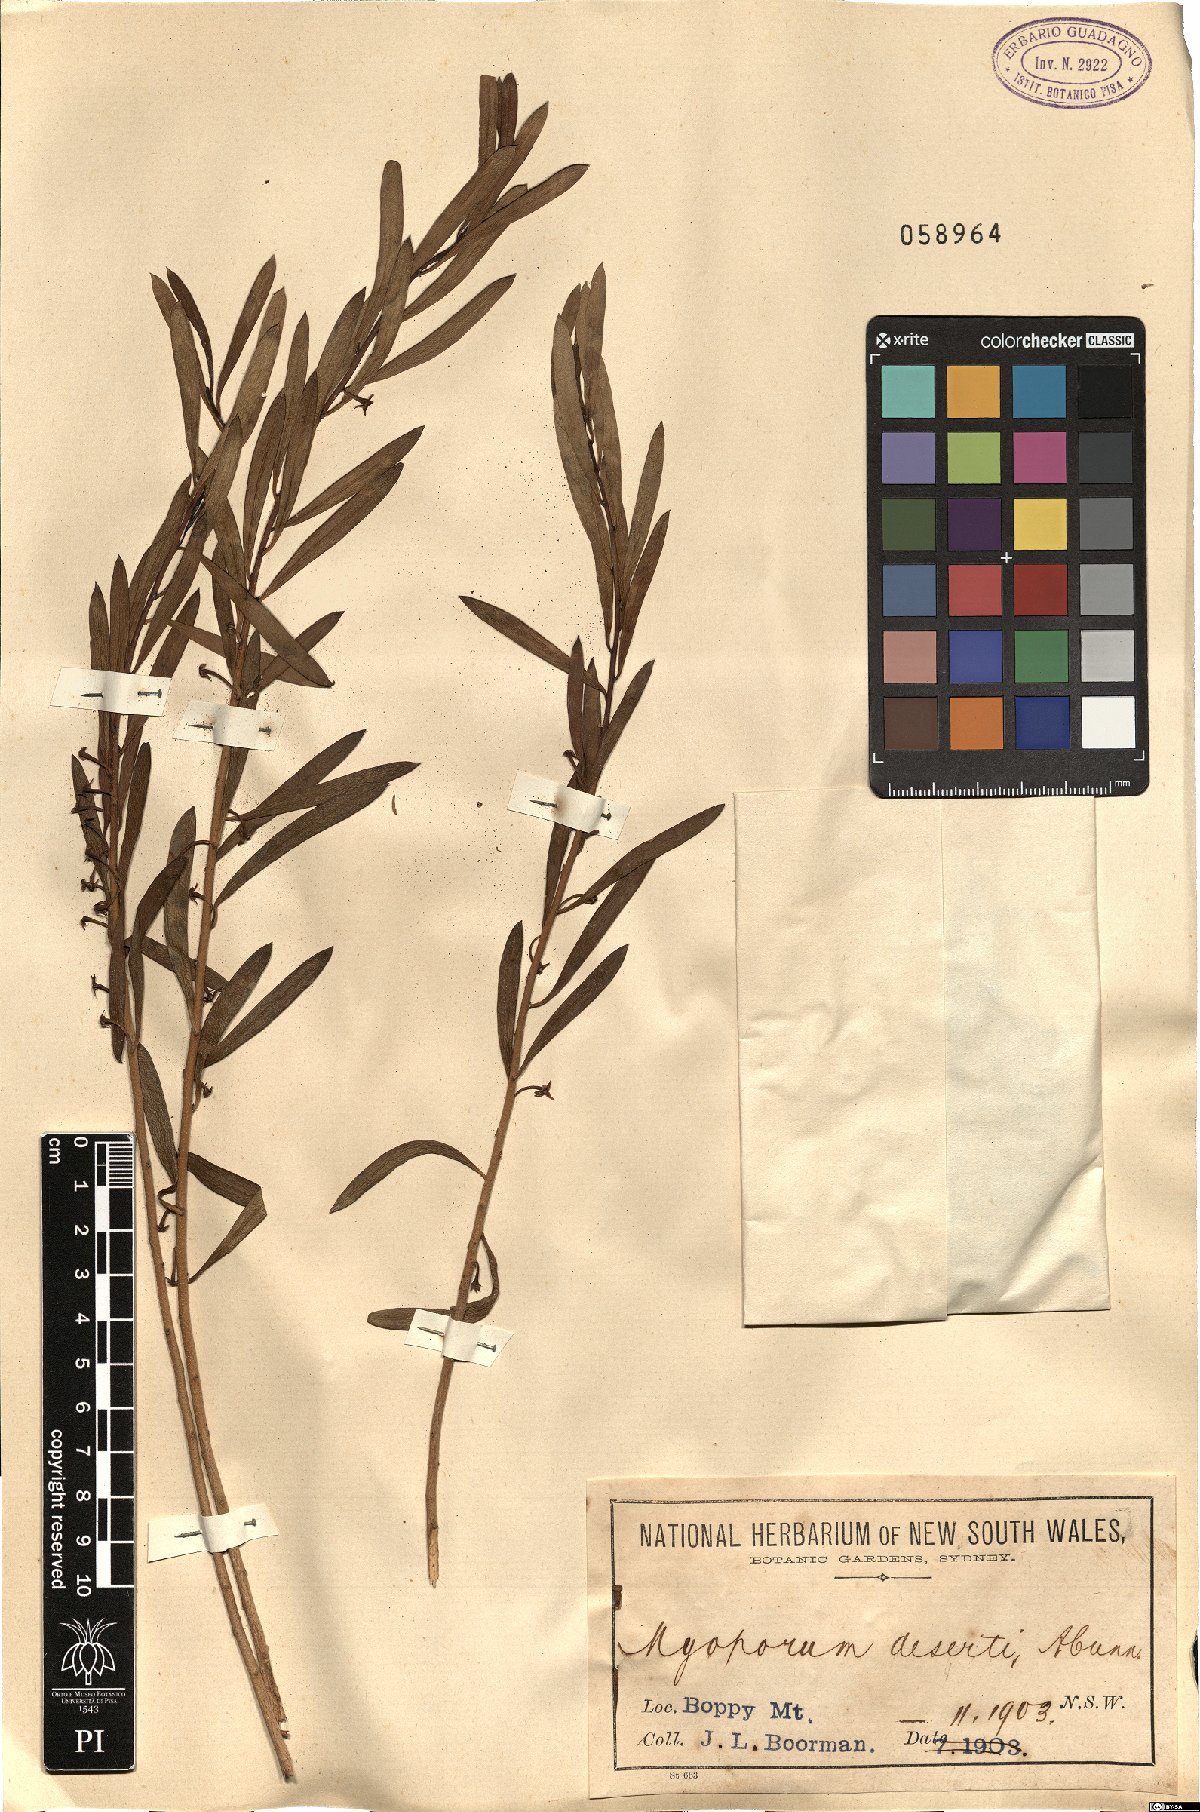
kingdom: Plantae
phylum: Tracheophyta
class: Magnoliopsida
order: Lamiales
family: Scrophulariaceae
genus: Eremophila
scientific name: Eremophila deserti
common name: Ellangowan-poisonbush
